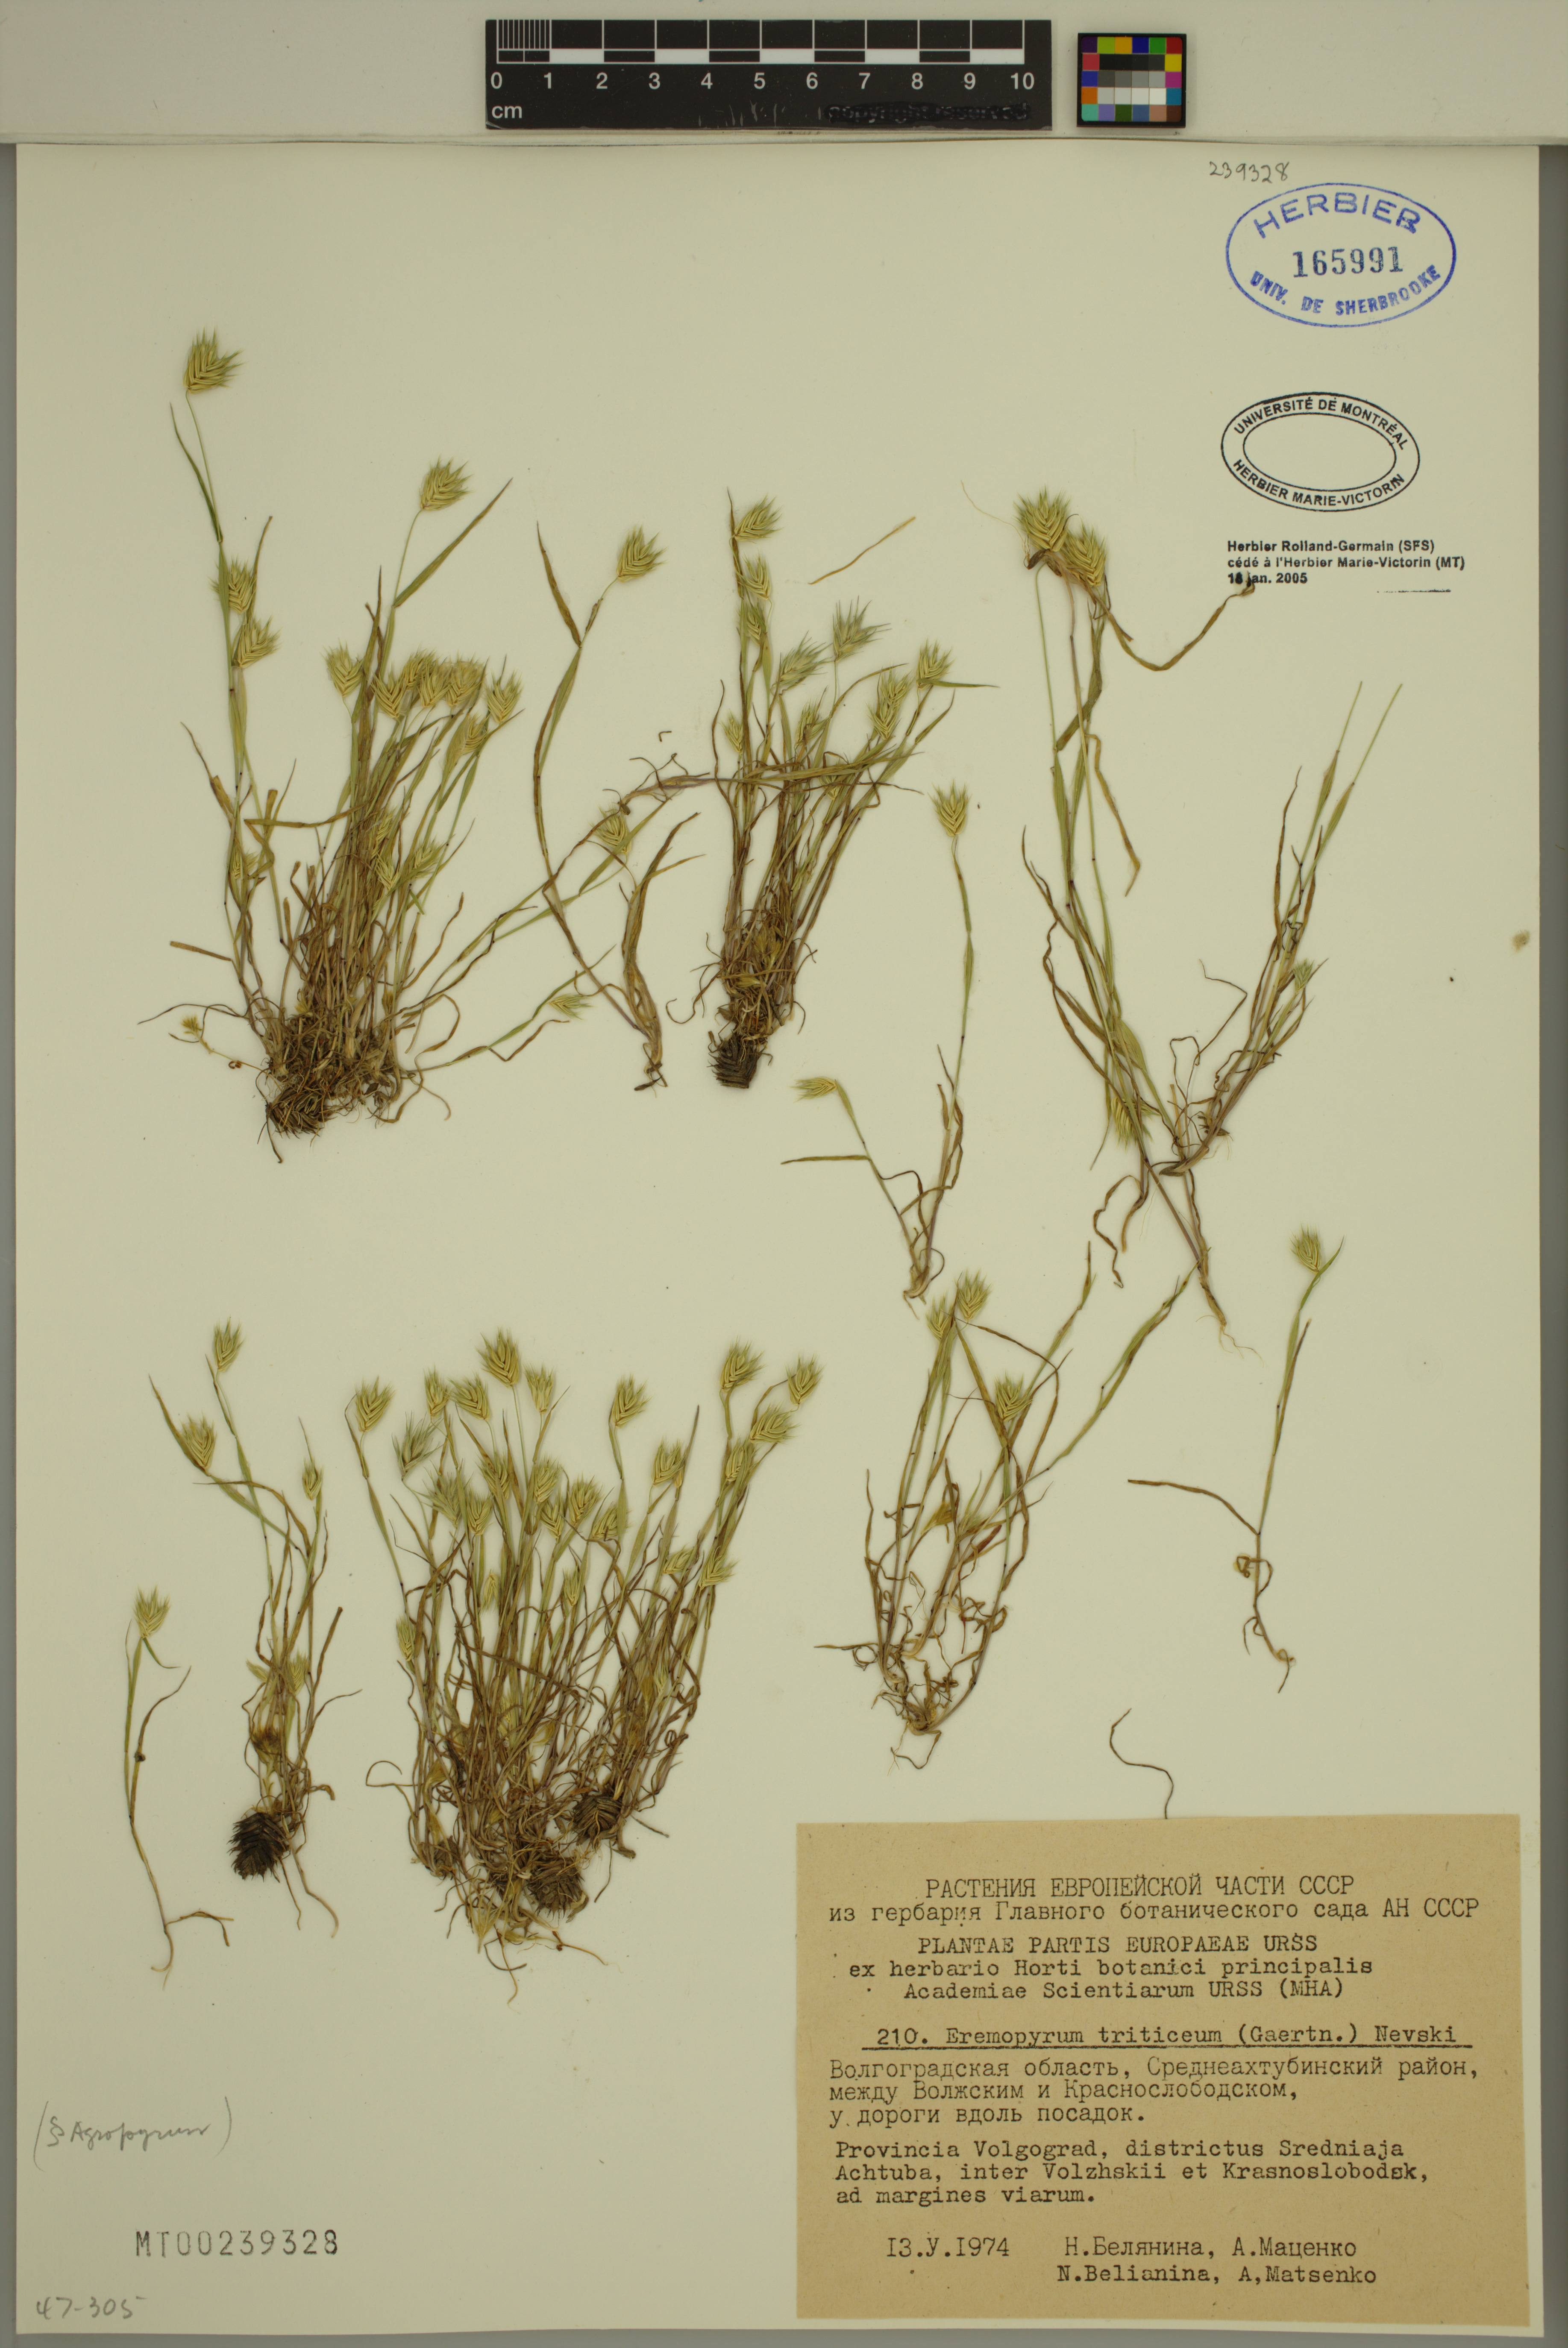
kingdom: Plantae
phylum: Tracheophyta
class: Liliopsida
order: Poales
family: Poaceae
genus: Eremopyrum
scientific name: Eremopyrum triticeum
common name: Annual wheatgrass
